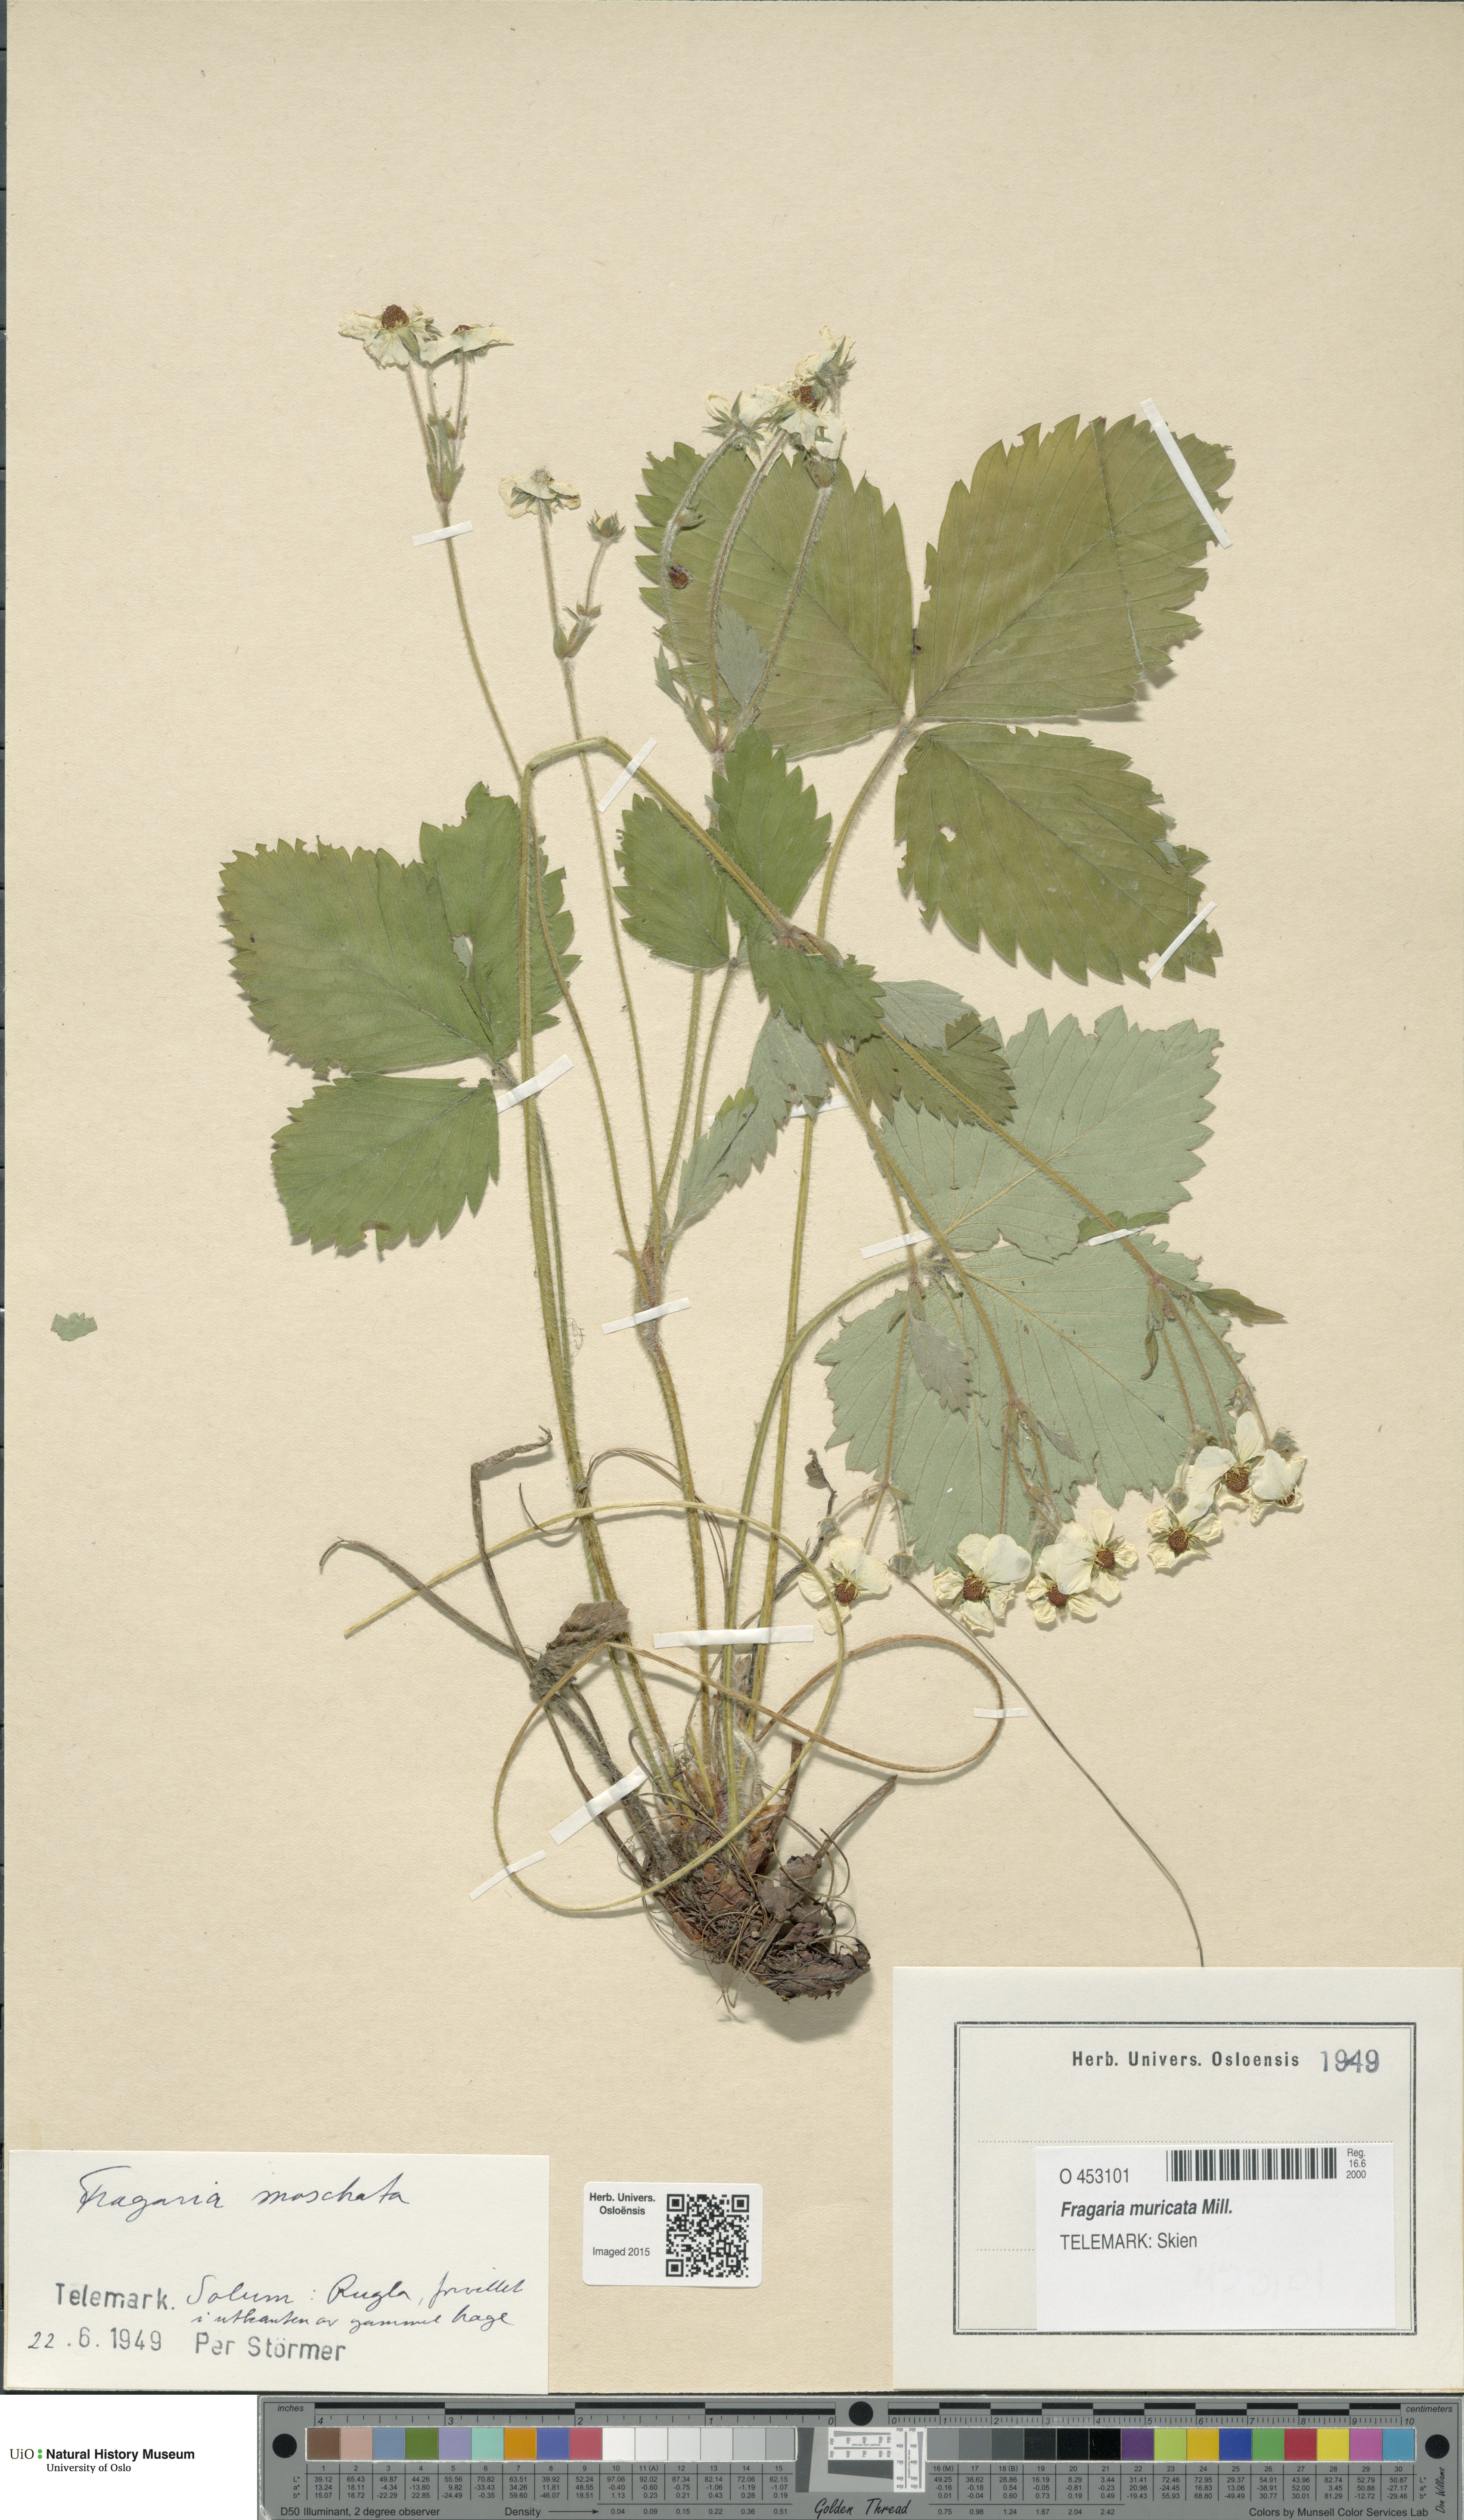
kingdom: Plantae
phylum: Tracheophyta
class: Magnoliopsida
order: Rosales
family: Rosaceae
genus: Fragaria
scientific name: Fragaria moschata
